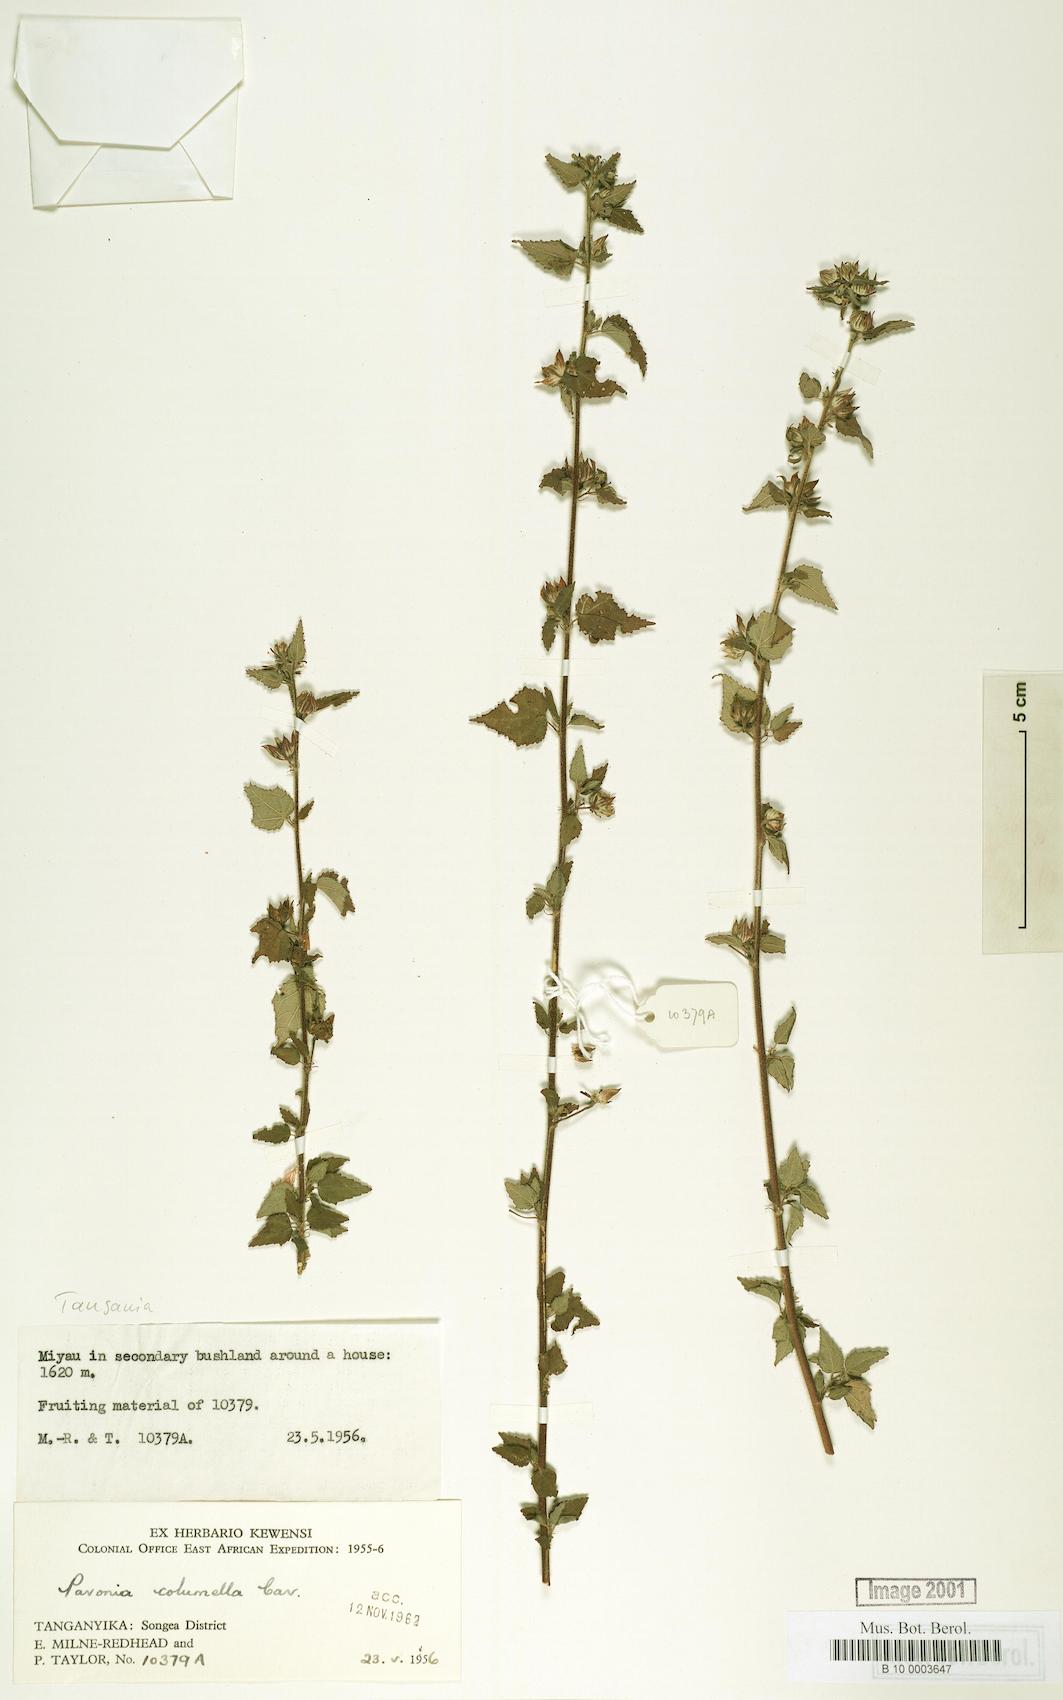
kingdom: Plantae
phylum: Tracheophyta
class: Magnoliopsida
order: Malvales
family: Malvaceae
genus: Pavonia
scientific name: Pavonia columella
